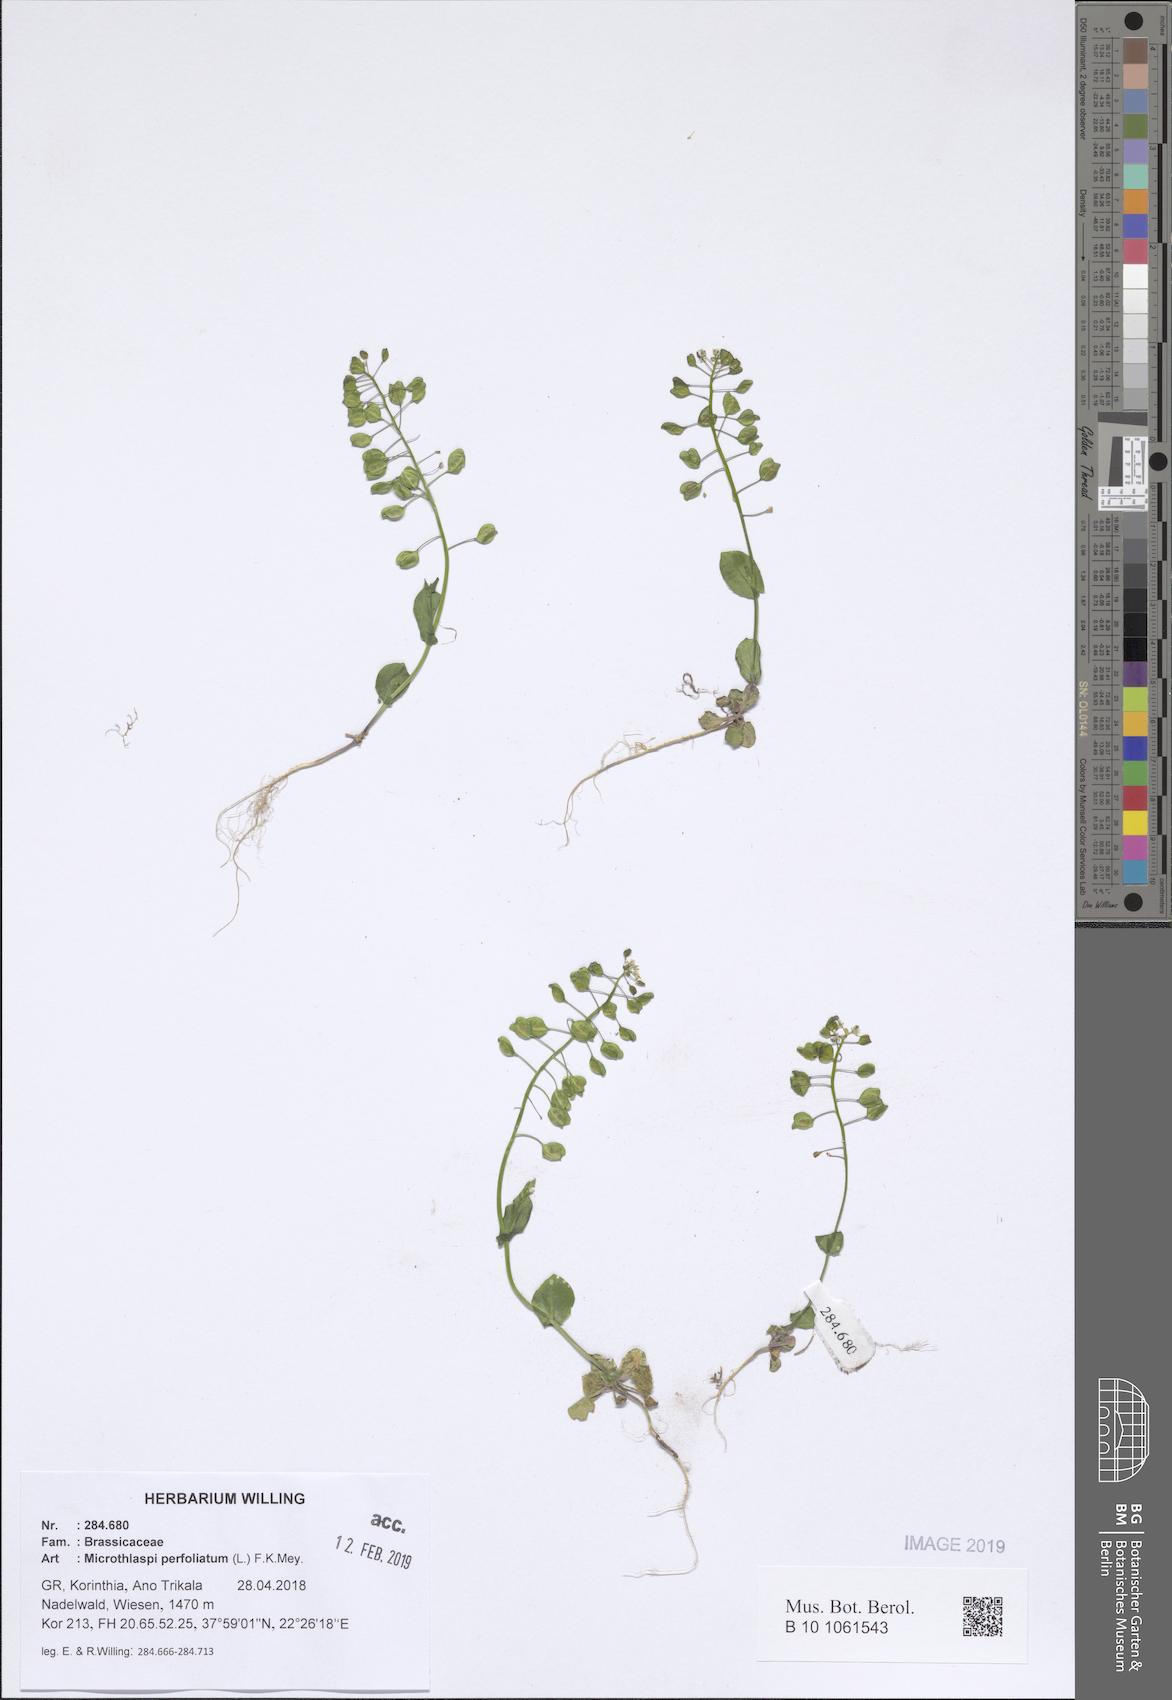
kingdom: Plantae
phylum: Tracheophyta
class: Magnoliopsida
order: Brassicales
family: Brassicaceae
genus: Noccaea
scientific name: Noccaea perfoliata
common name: Perfoliate pennycress
